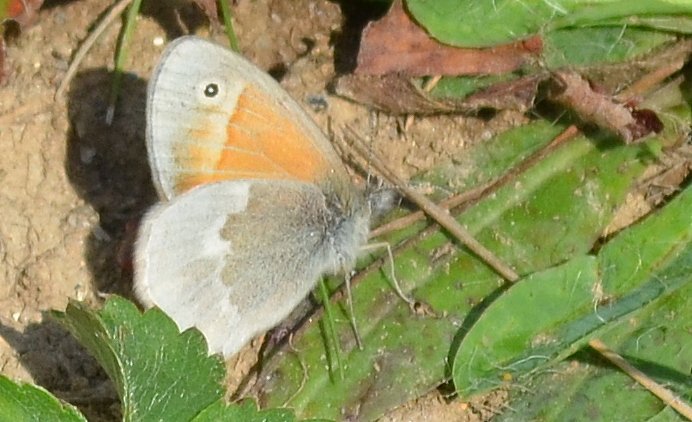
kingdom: Animalia
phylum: Arthropoda
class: Insecta
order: Lepidoptera
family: Nymphalidae
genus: Coenonympha
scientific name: Coenonympha tullia
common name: Large Heath
